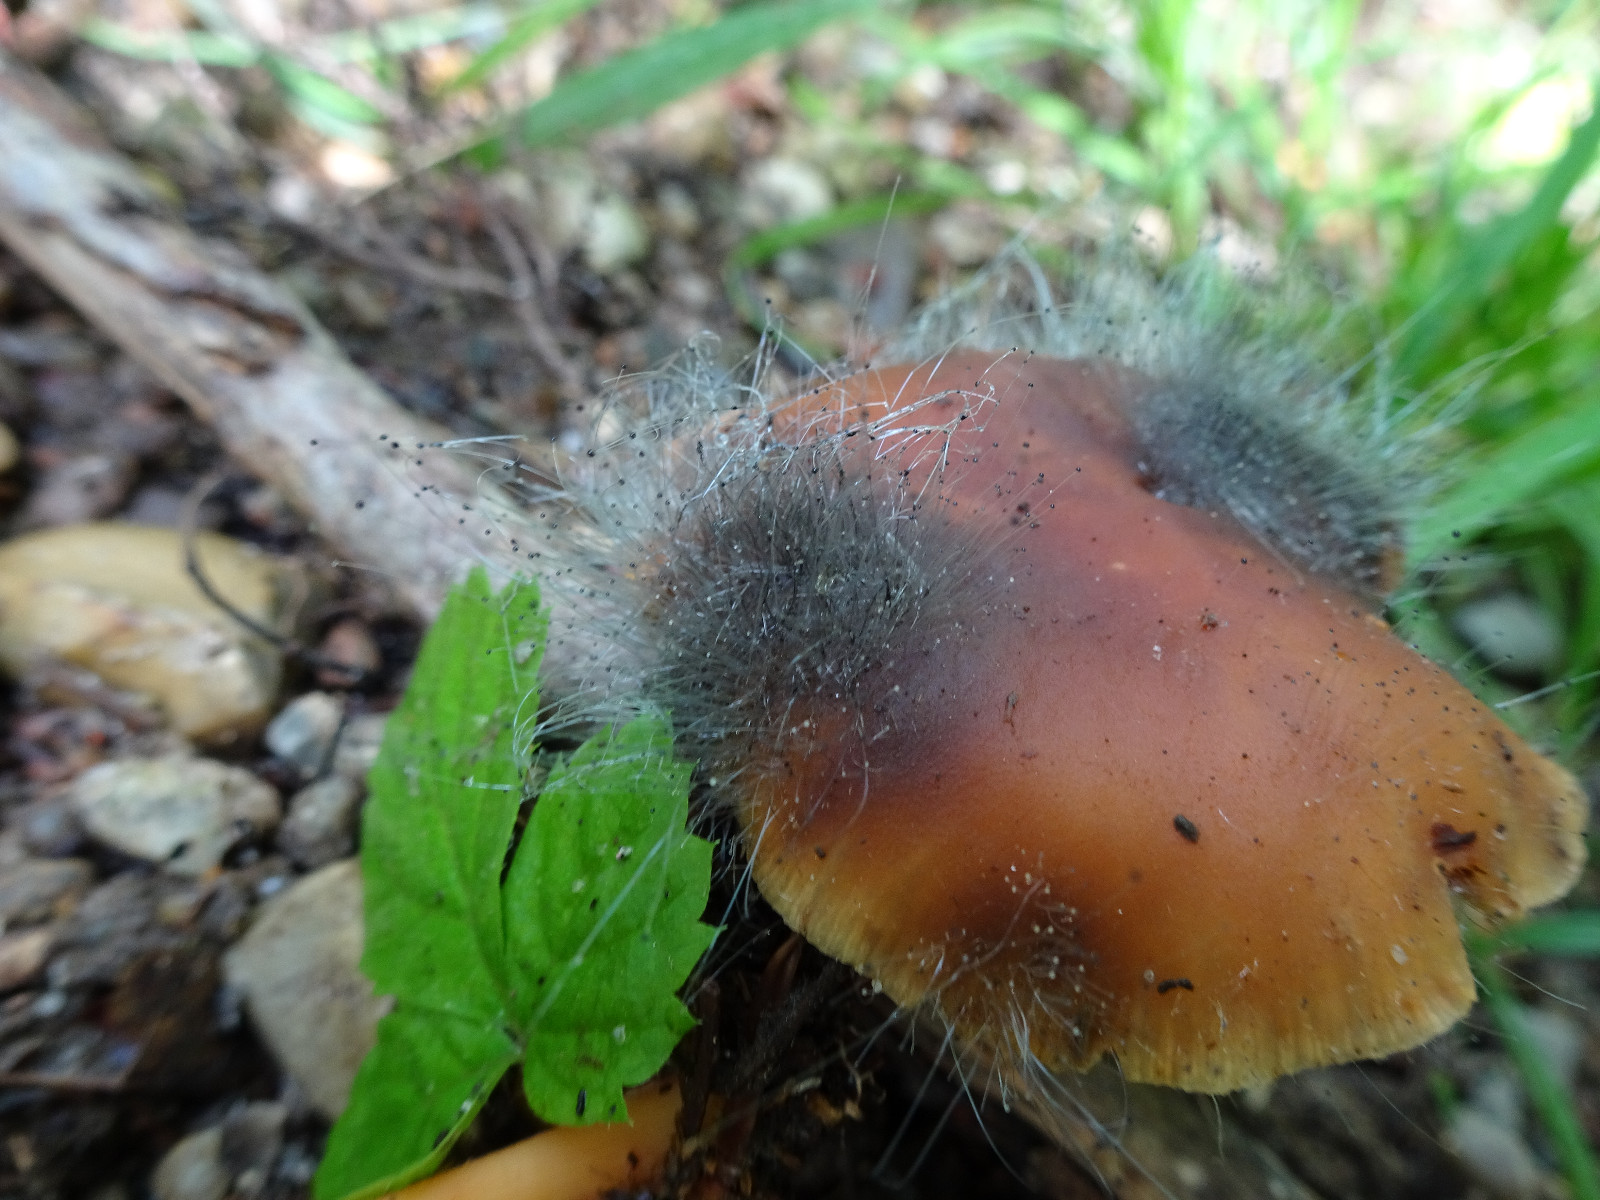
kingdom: Fungi
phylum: Mucoromycota
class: Mucoromycetes
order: Mucorales
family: Phycomycetaceae
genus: Spinellus
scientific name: Spinellus fusiger
